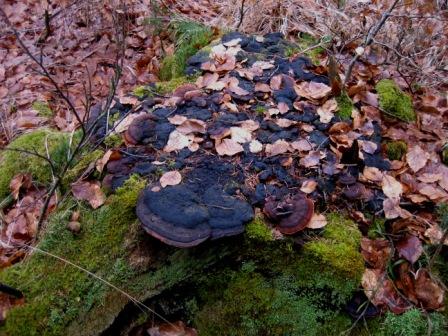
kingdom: Fungi
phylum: Basidiomycota
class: Agaricomycetes
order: Gloeophyllales
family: Gloeophyllaceae
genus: Gloeophyllum
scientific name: Gloeophyllum odoratum
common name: duftende korkhat
